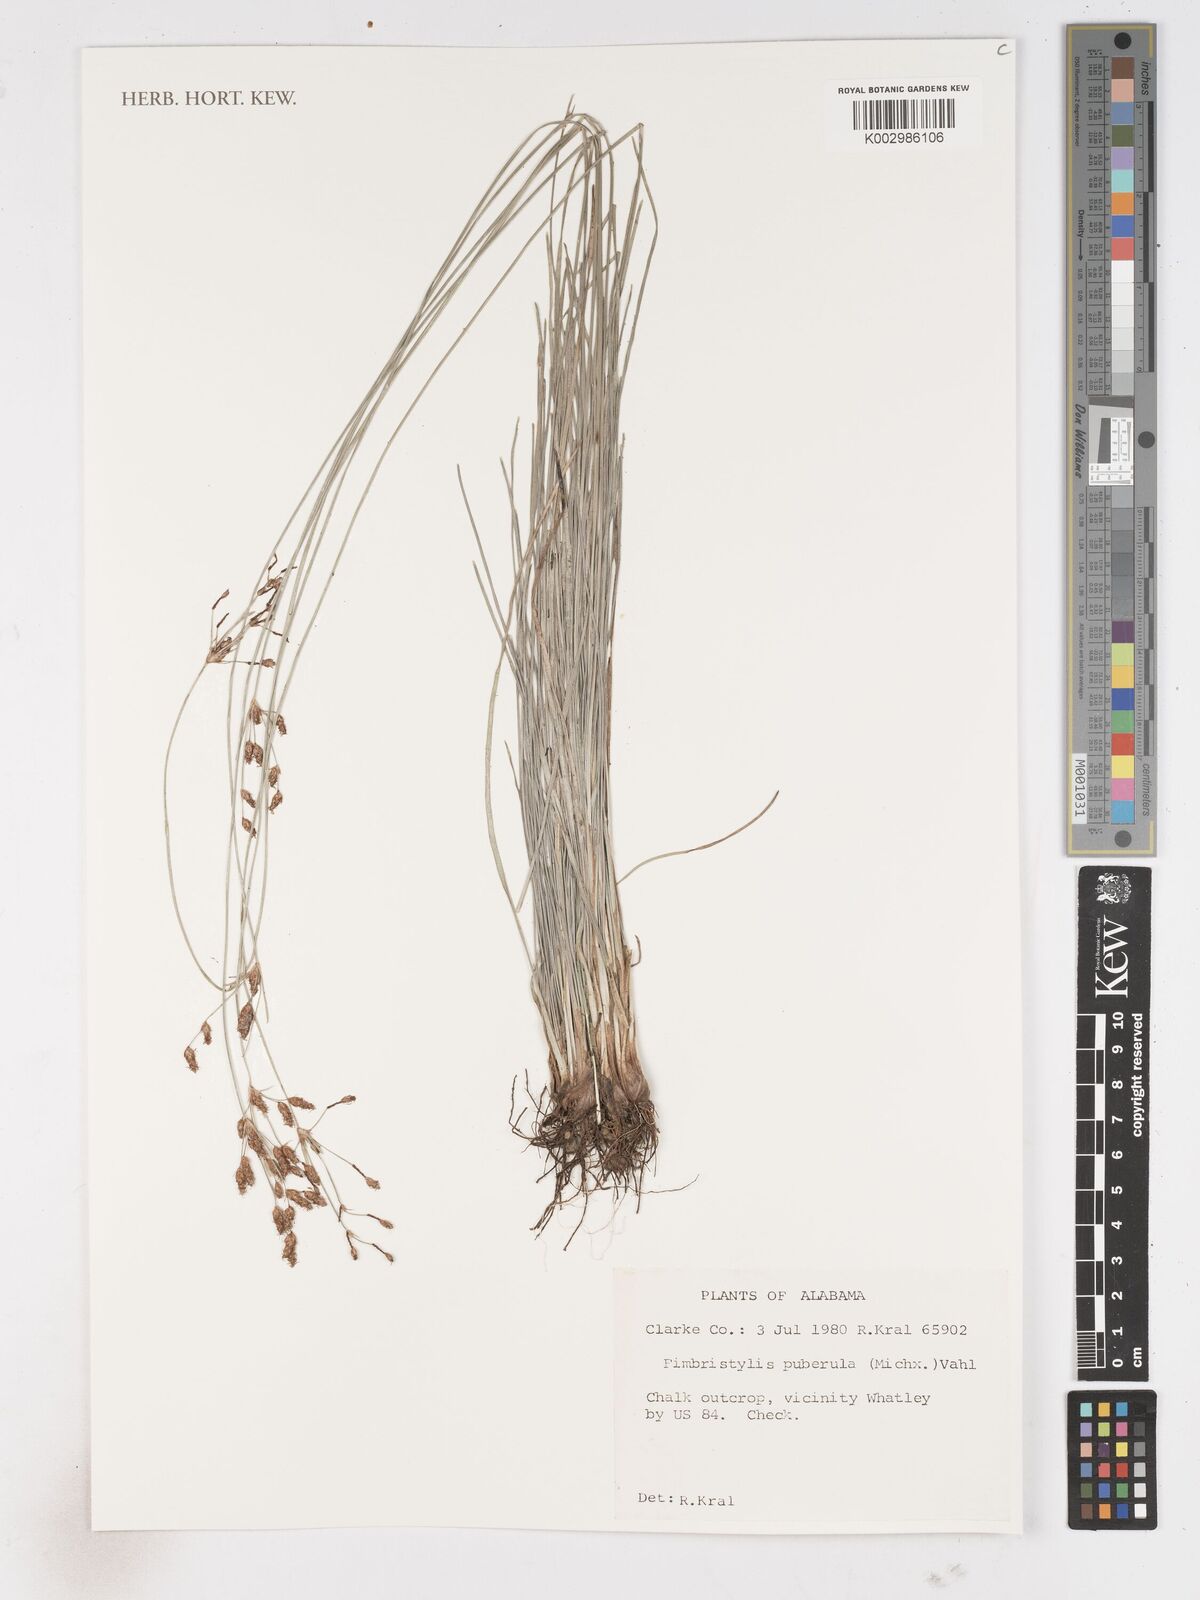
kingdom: Plantae
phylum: Tracheophyta
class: Liliopsida
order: Poales
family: Cyperaceae
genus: Fimbristylis
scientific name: Fimbristylis puberula
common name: Hairy fimbristylis
